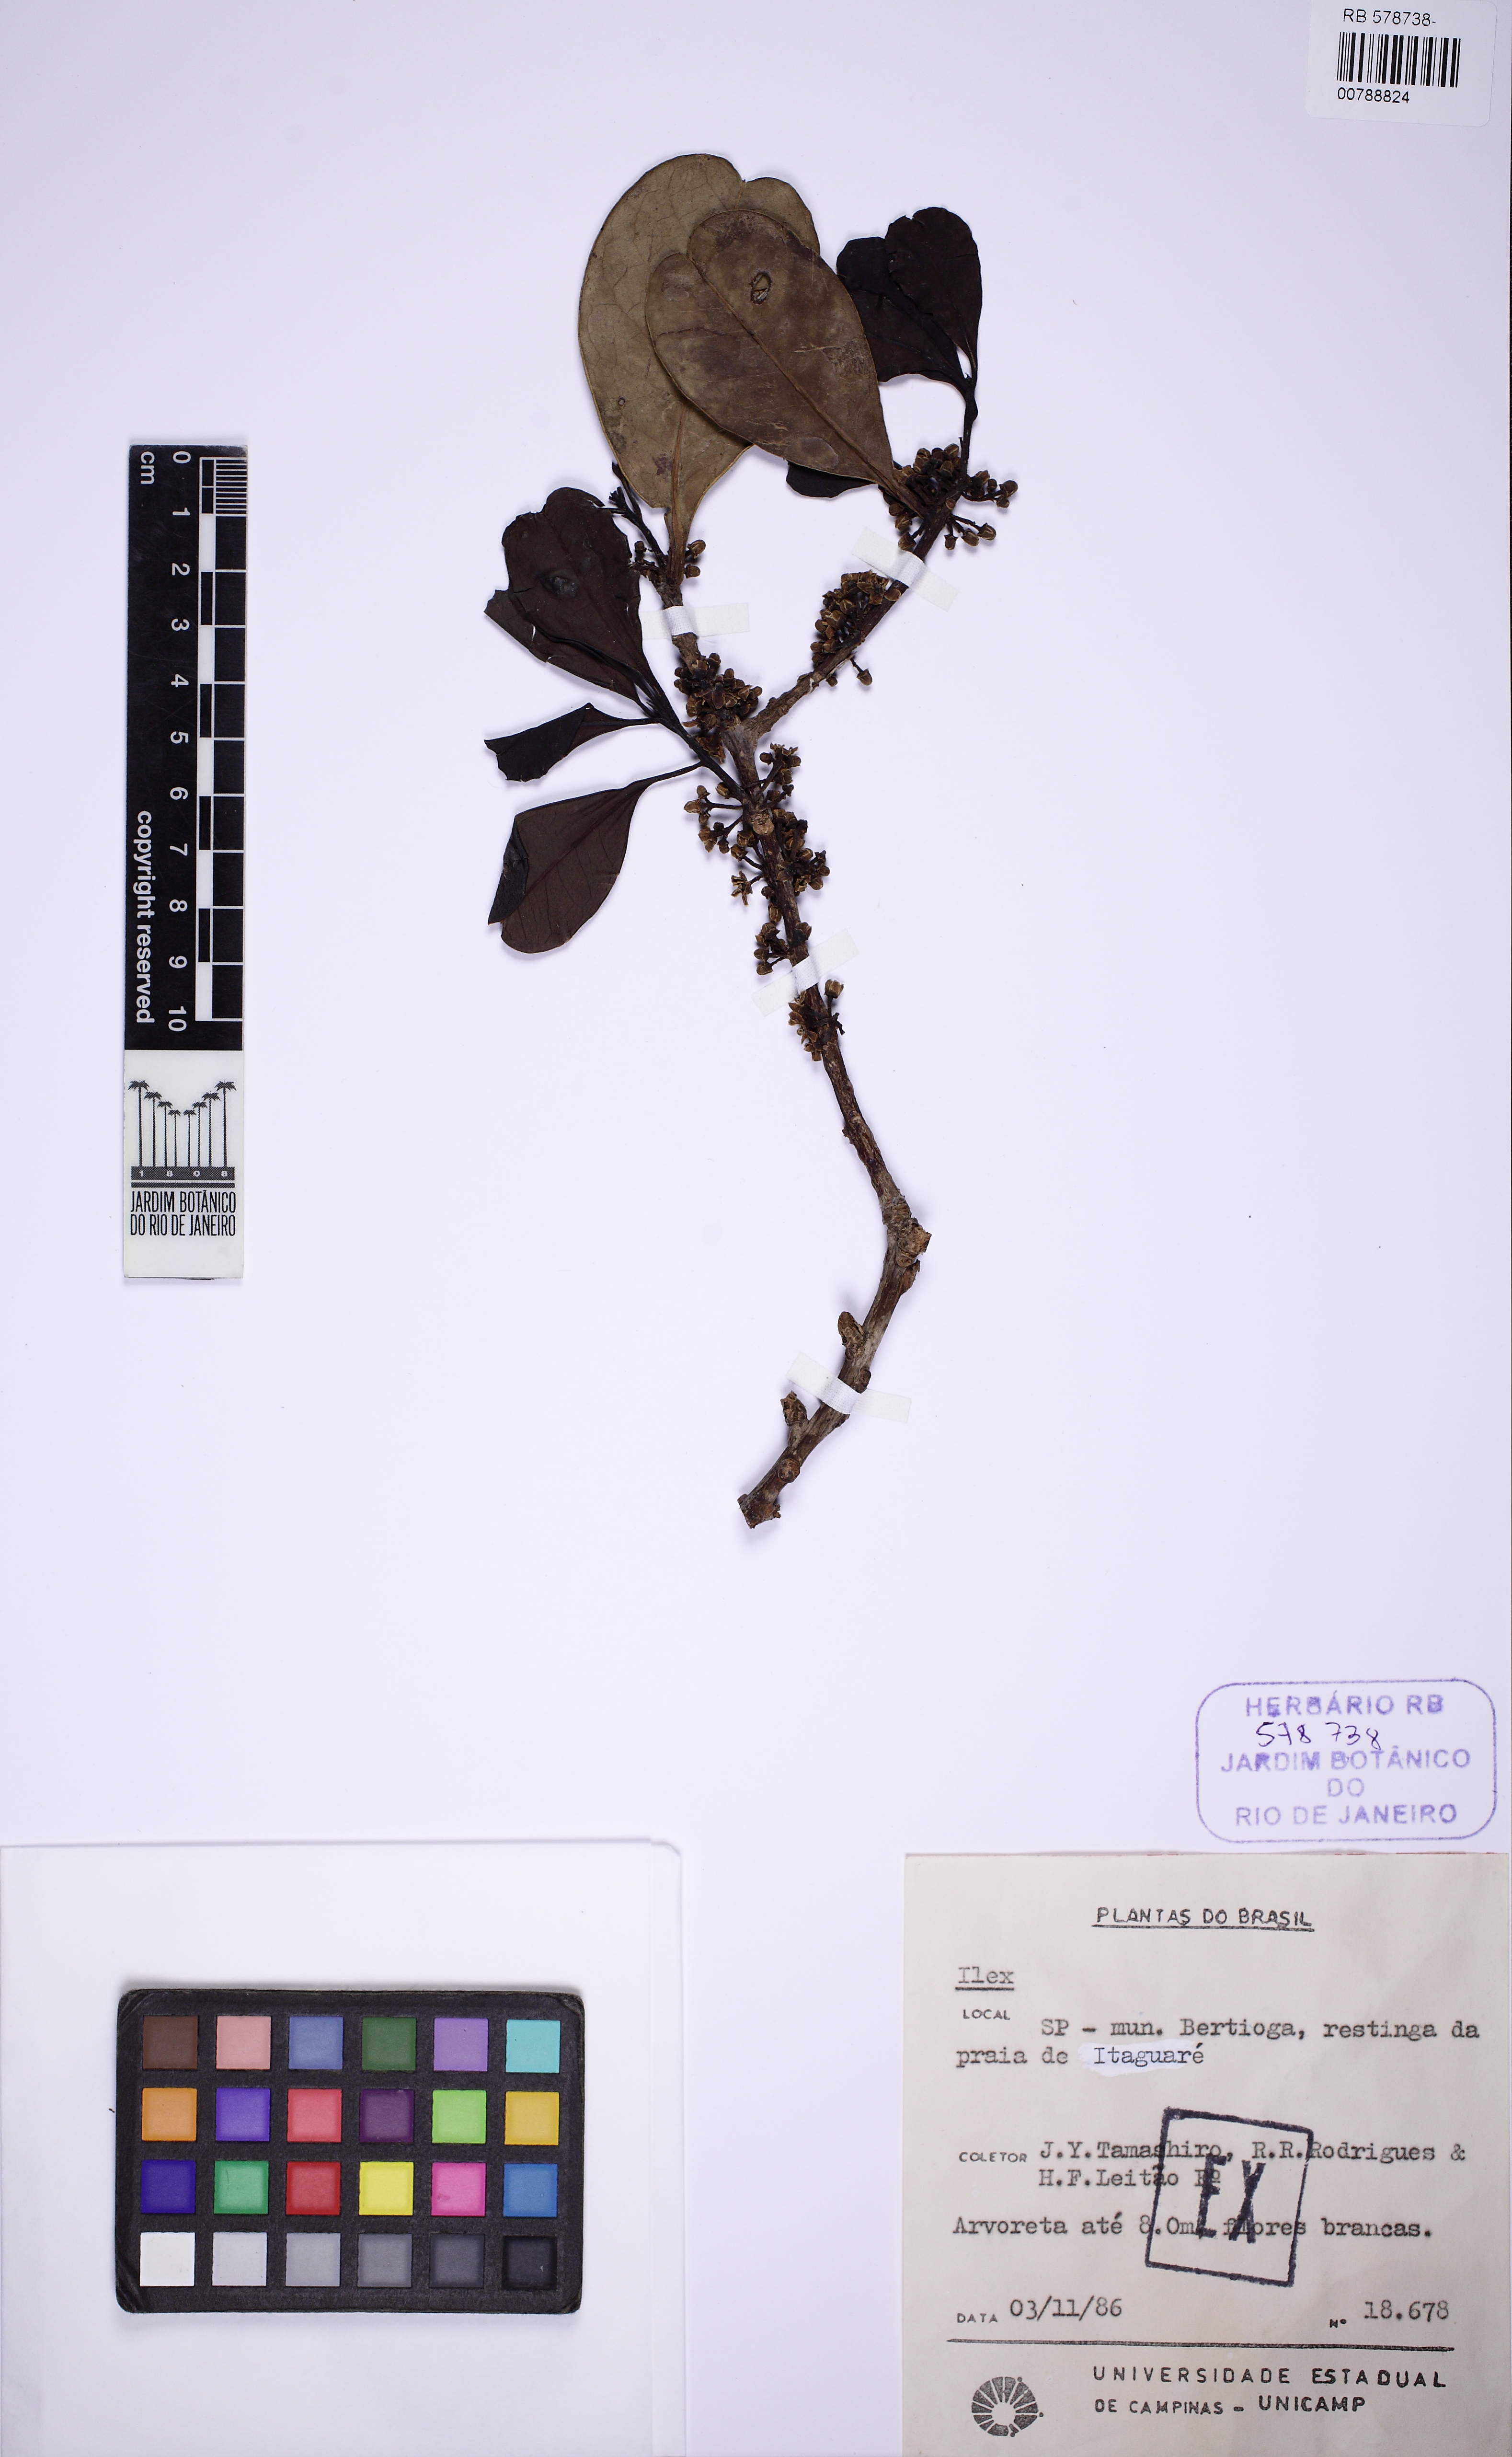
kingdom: Plantae
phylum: Tracheophyta
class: Magnoliopsida
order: Aquifoliales
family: Aquifoliaceae
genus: Ilex
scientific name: Ilex
